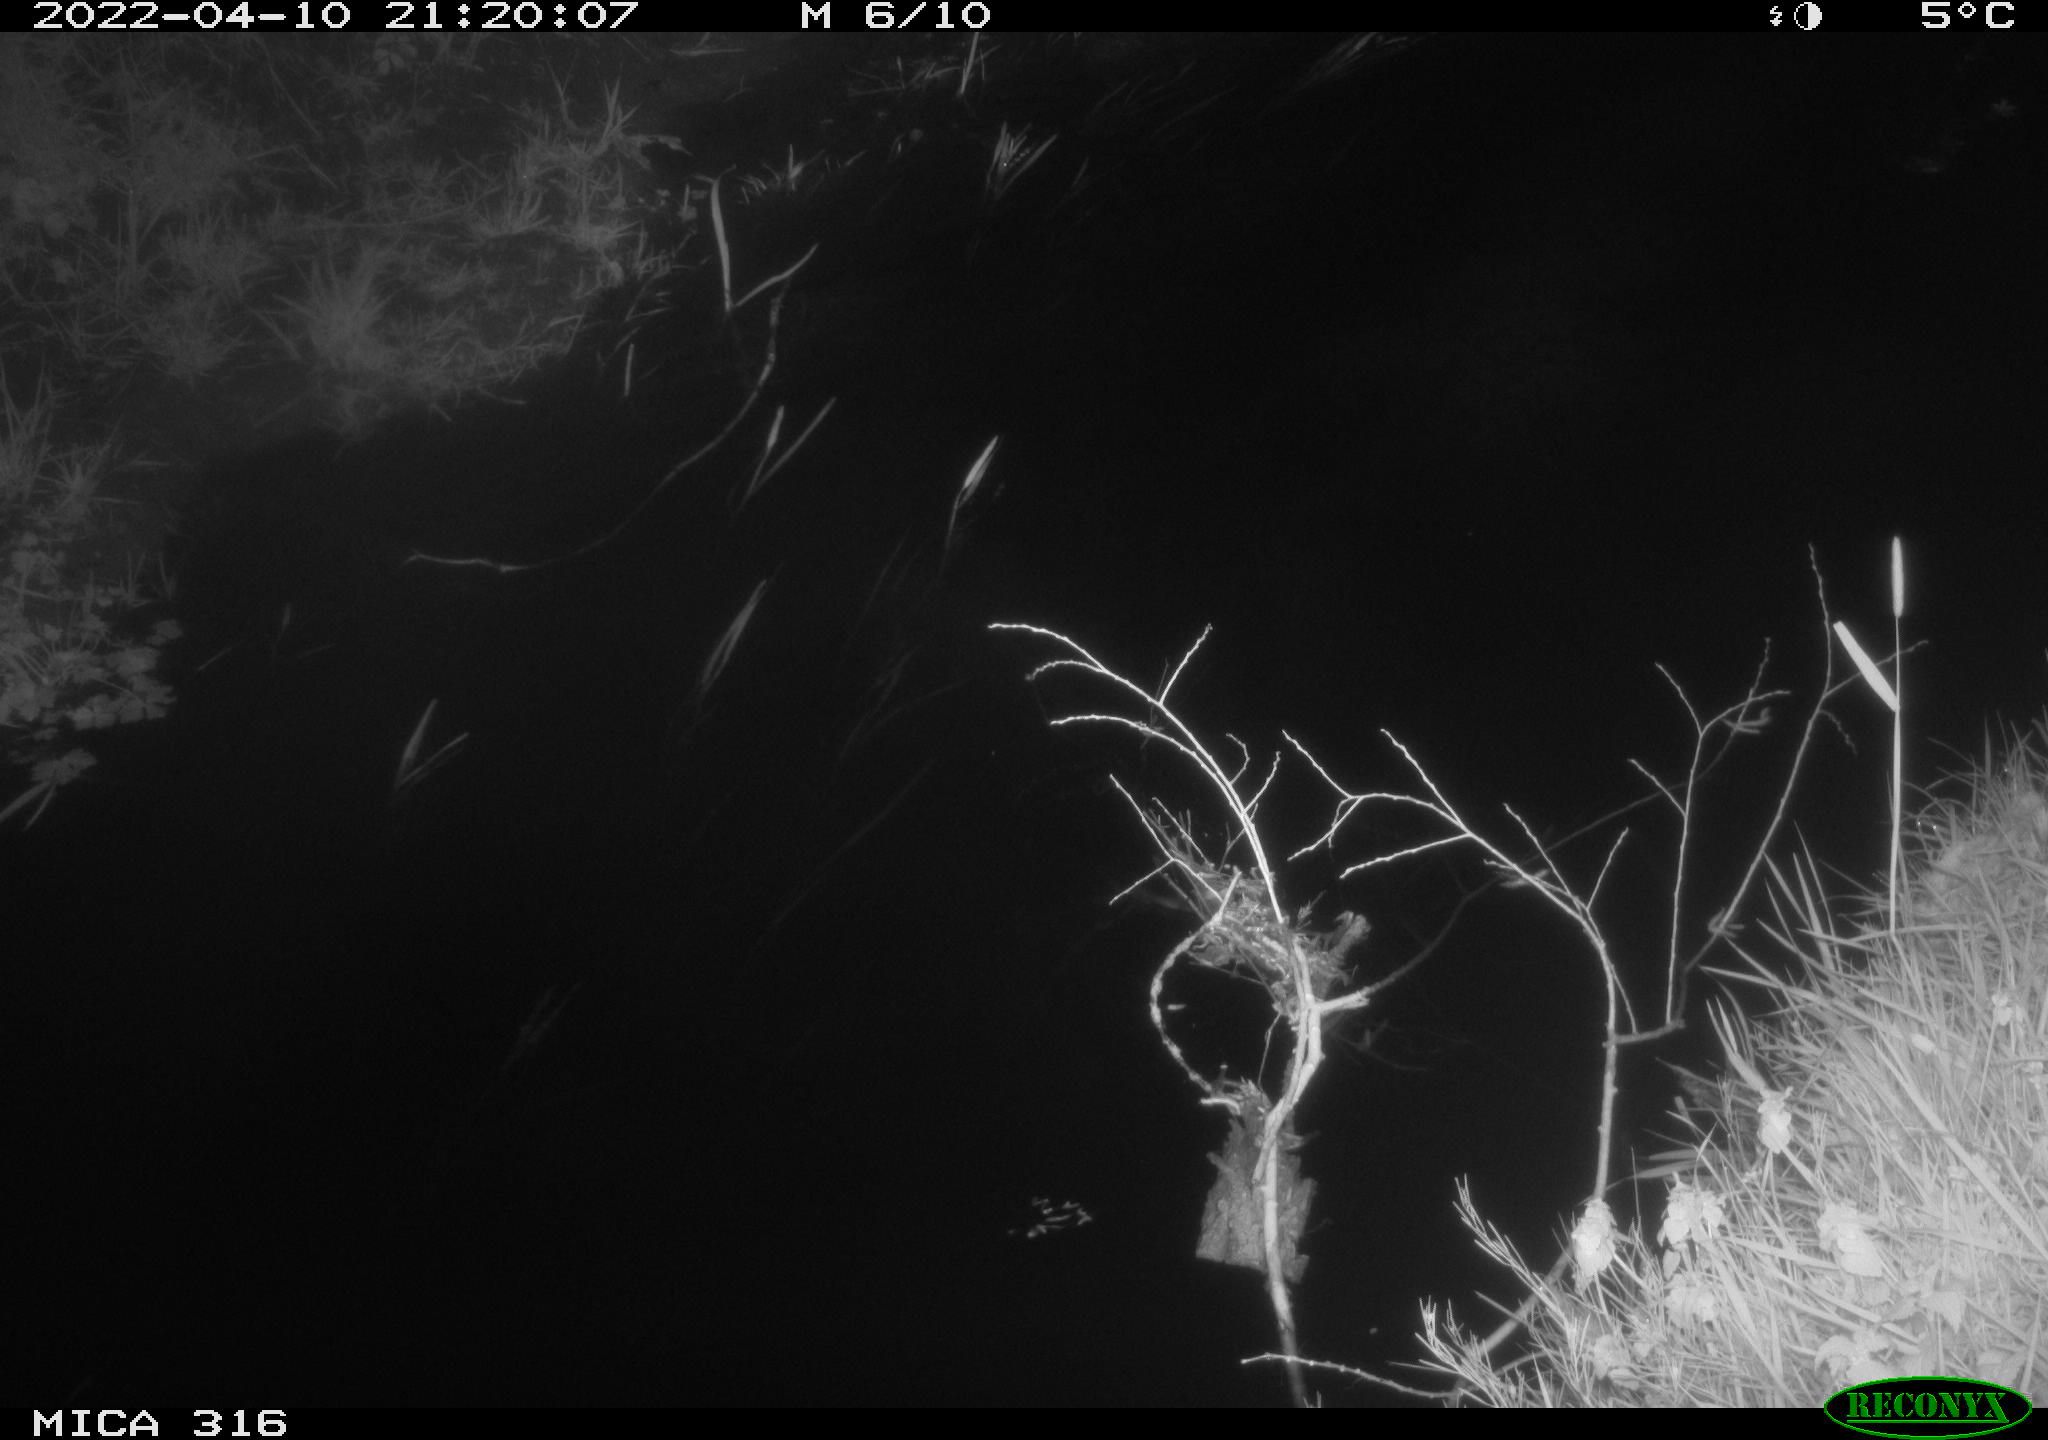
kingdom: Animalia
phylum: Chordata
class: Aves
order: Anseriformes
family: Anatidae
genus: Anas
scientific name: Anas platyrhynchos
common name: Mallard
